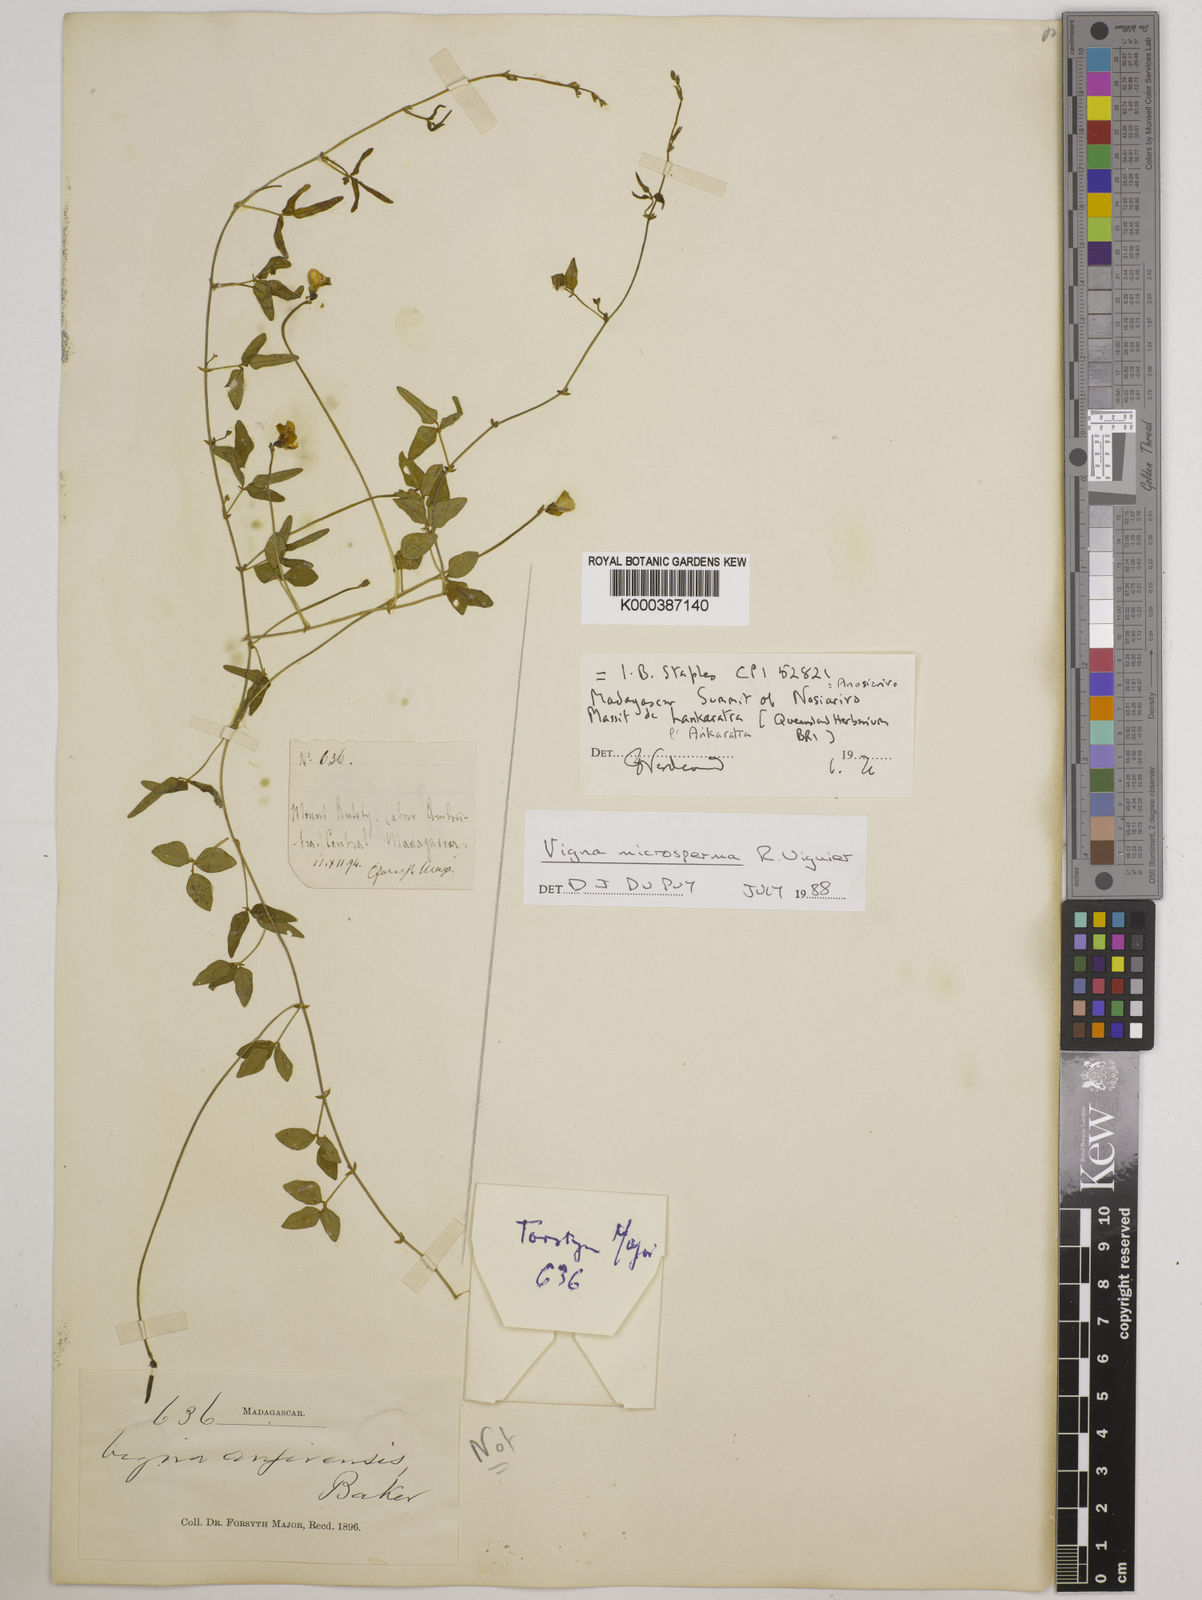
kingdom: Plantae
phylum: Tracheophyta
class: Magnoliopsida
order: Fabales
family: Fabaceae
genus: Vigna
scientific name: Vigna microsperma
